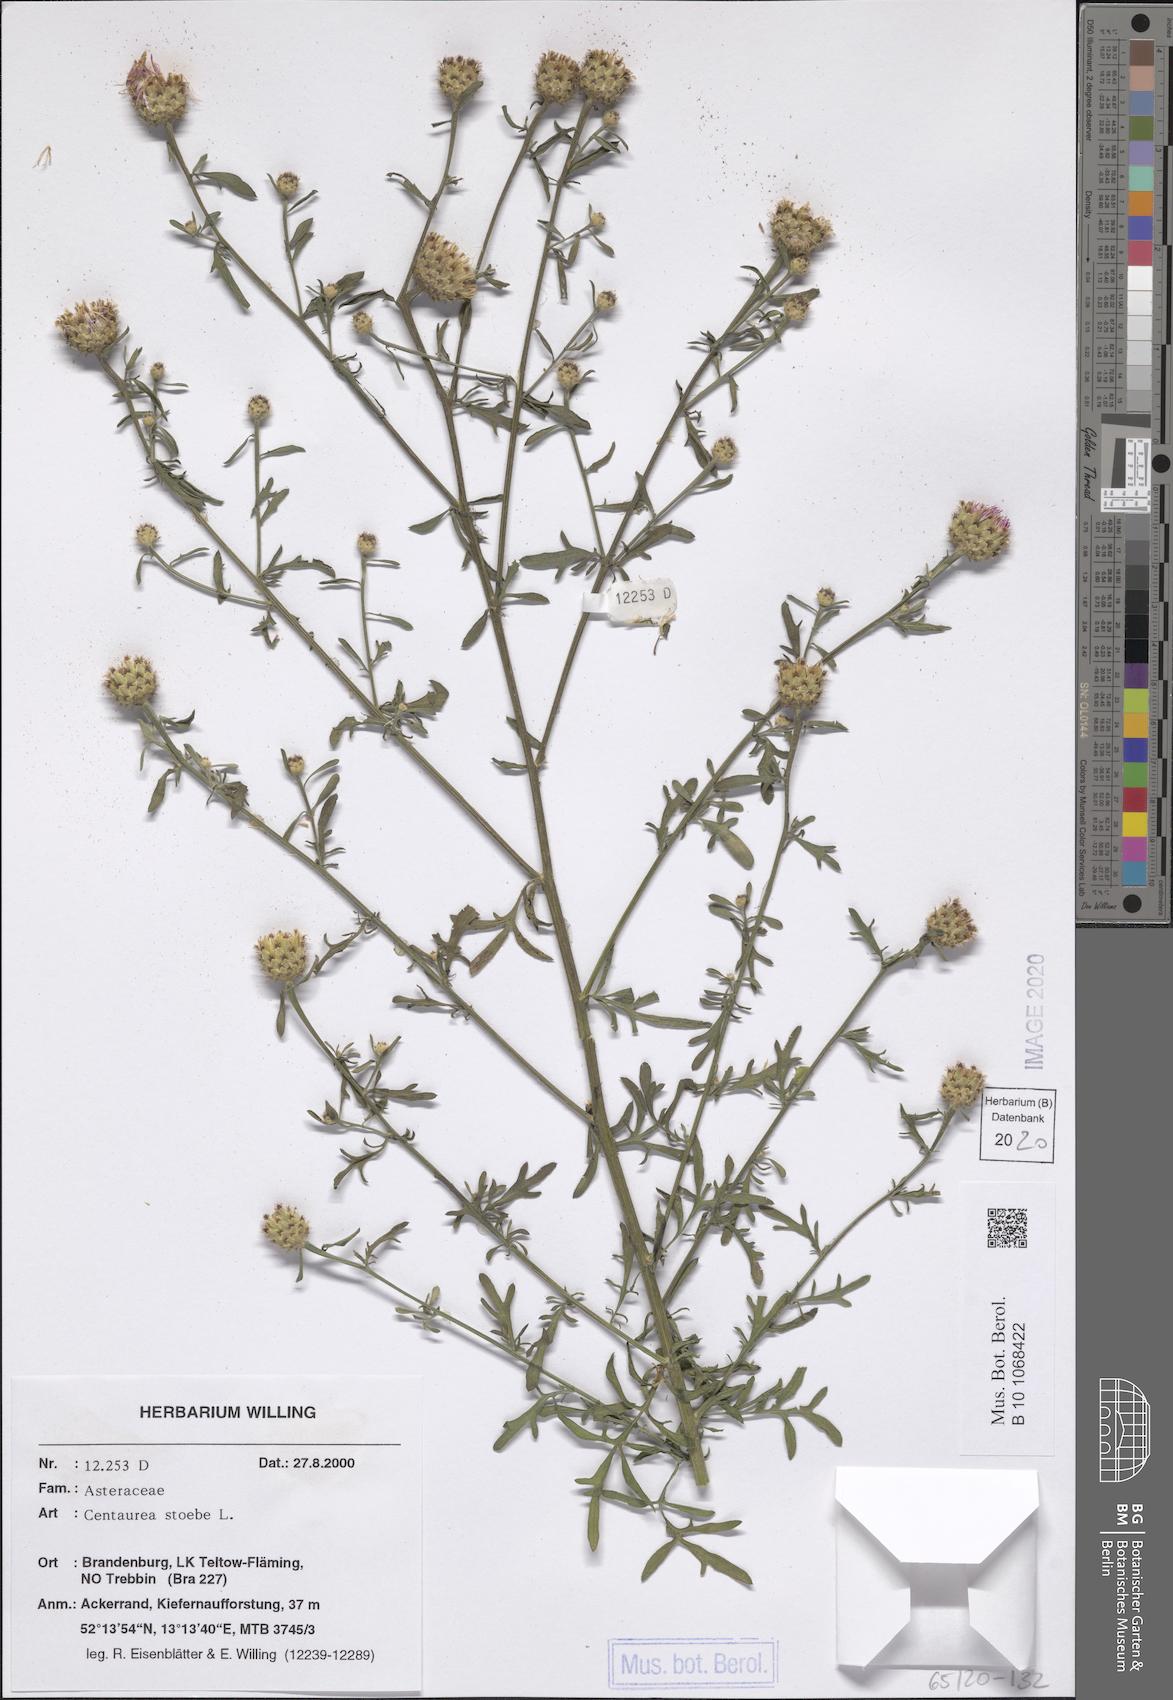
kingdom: Plantae
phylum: Tracheophyta
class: Magnoliopsida
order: Asterales
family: Asteraceae
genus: Centaurea
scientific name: Centaurea stoebe
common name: Spotted knapweed
